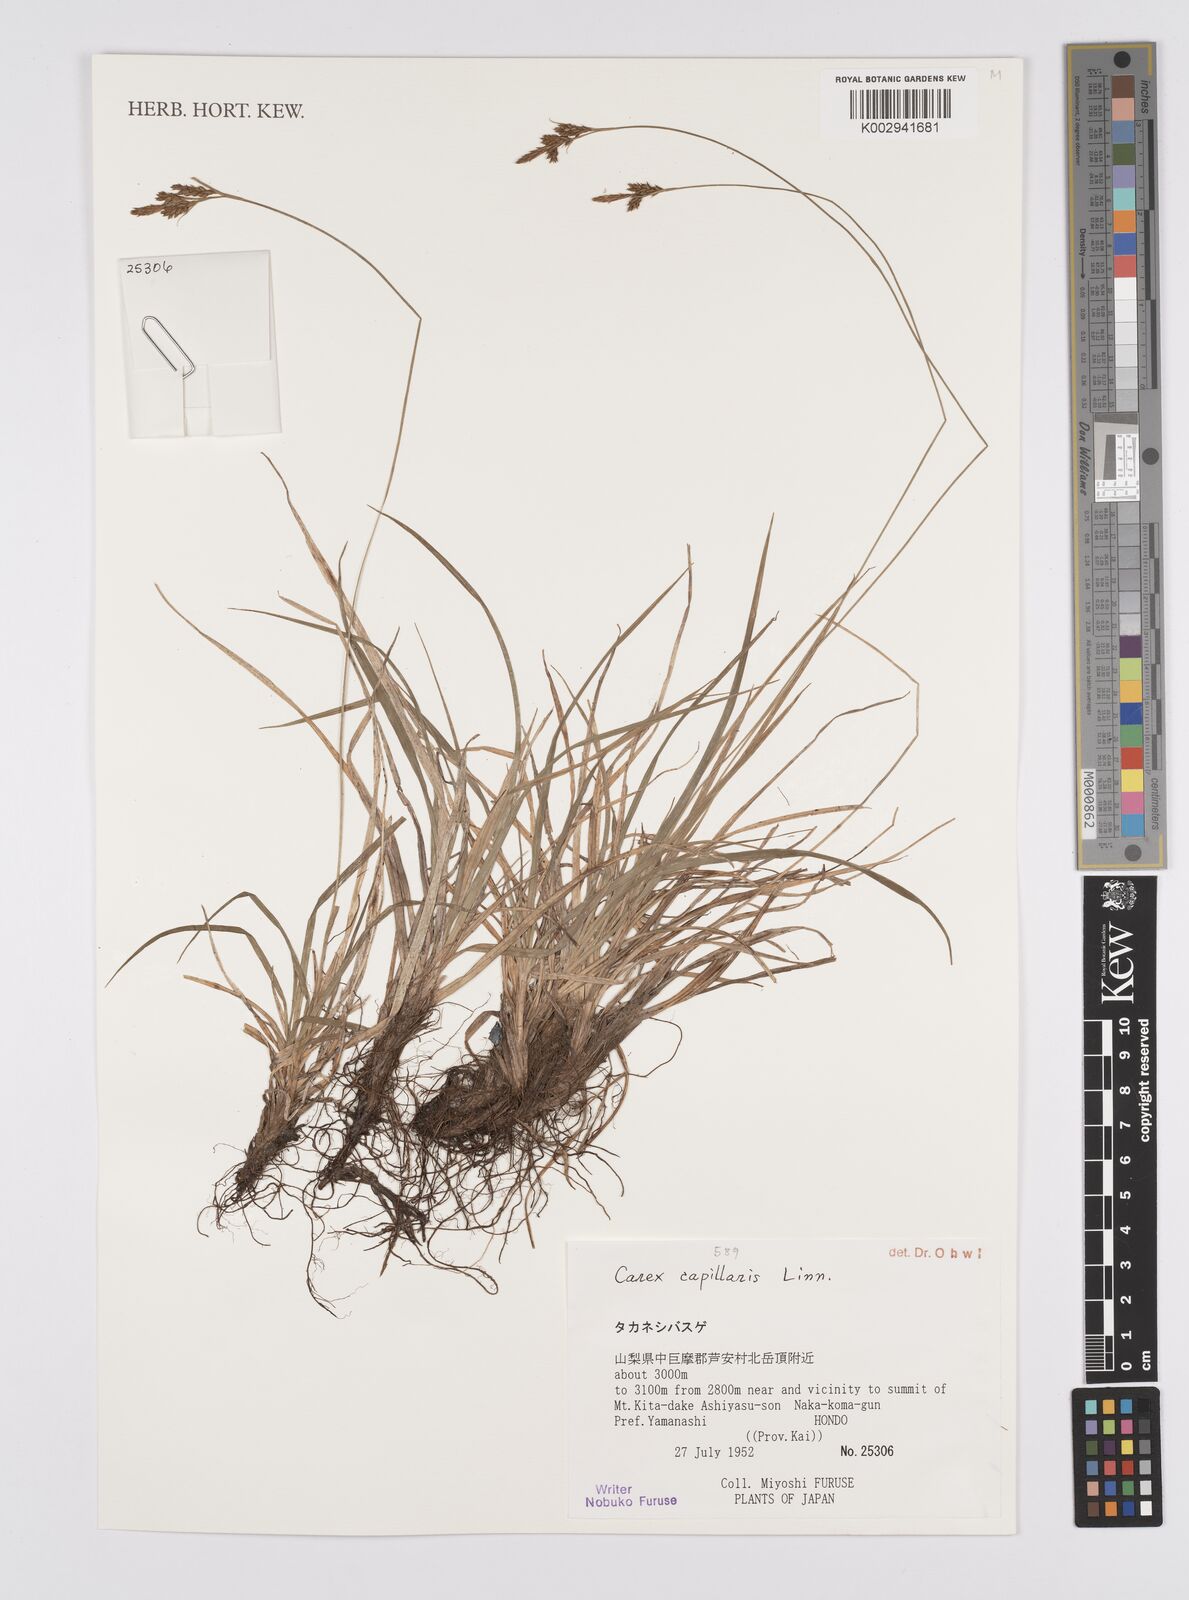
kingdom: Plantae
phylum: Tracheophyta
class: Liliopsida
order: Poales
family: Cyperaceae
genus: Carex
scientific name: Carex capillaris
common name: Hair sedge
